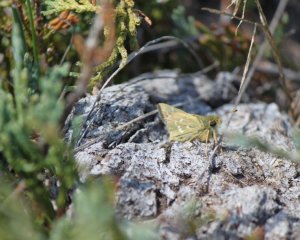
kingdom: Animalia
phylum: Arthropoda
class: Insecta
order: Lepidoptera
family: Hesperiidae
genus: Hesperia
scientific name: Hesperia comma
